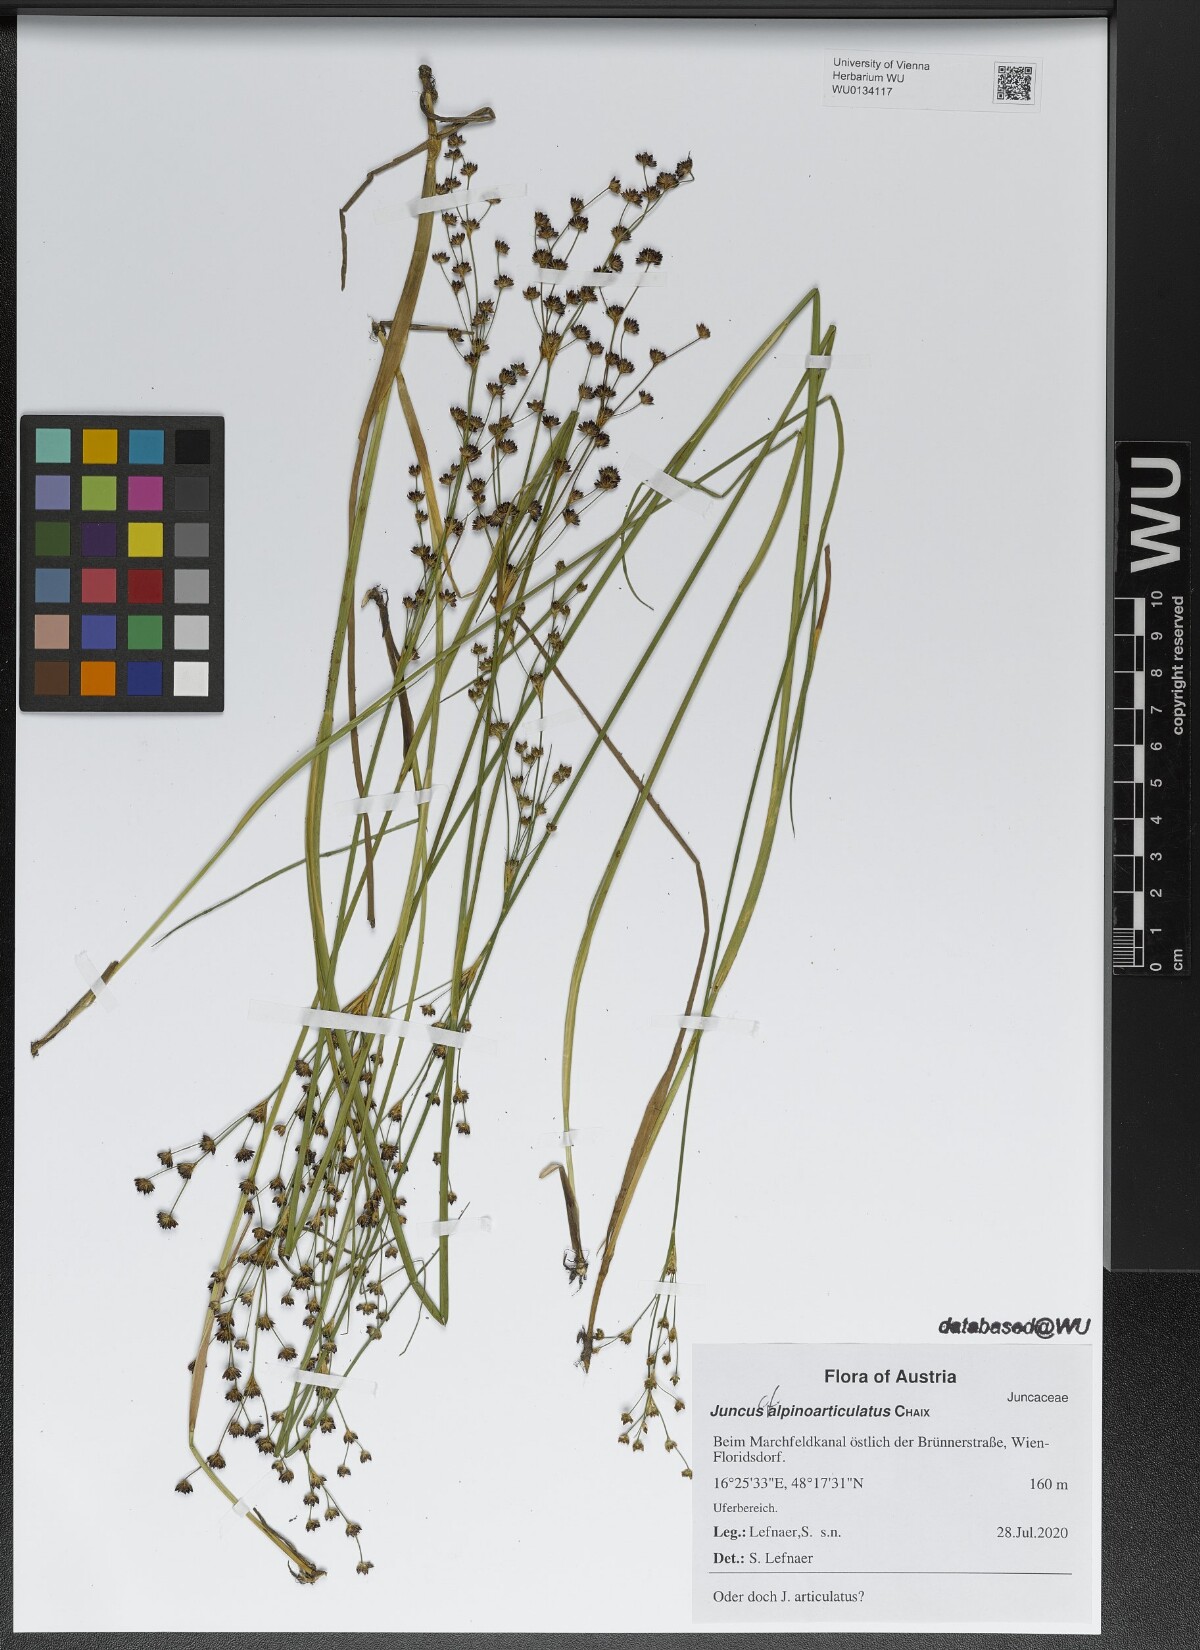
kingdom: Plantae
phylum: Tracheophyta
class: Liliopsida
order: Poales
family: Juncaceae
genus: Juncus
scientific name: Juncus alpinoarticulatus
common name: Alpine rush
